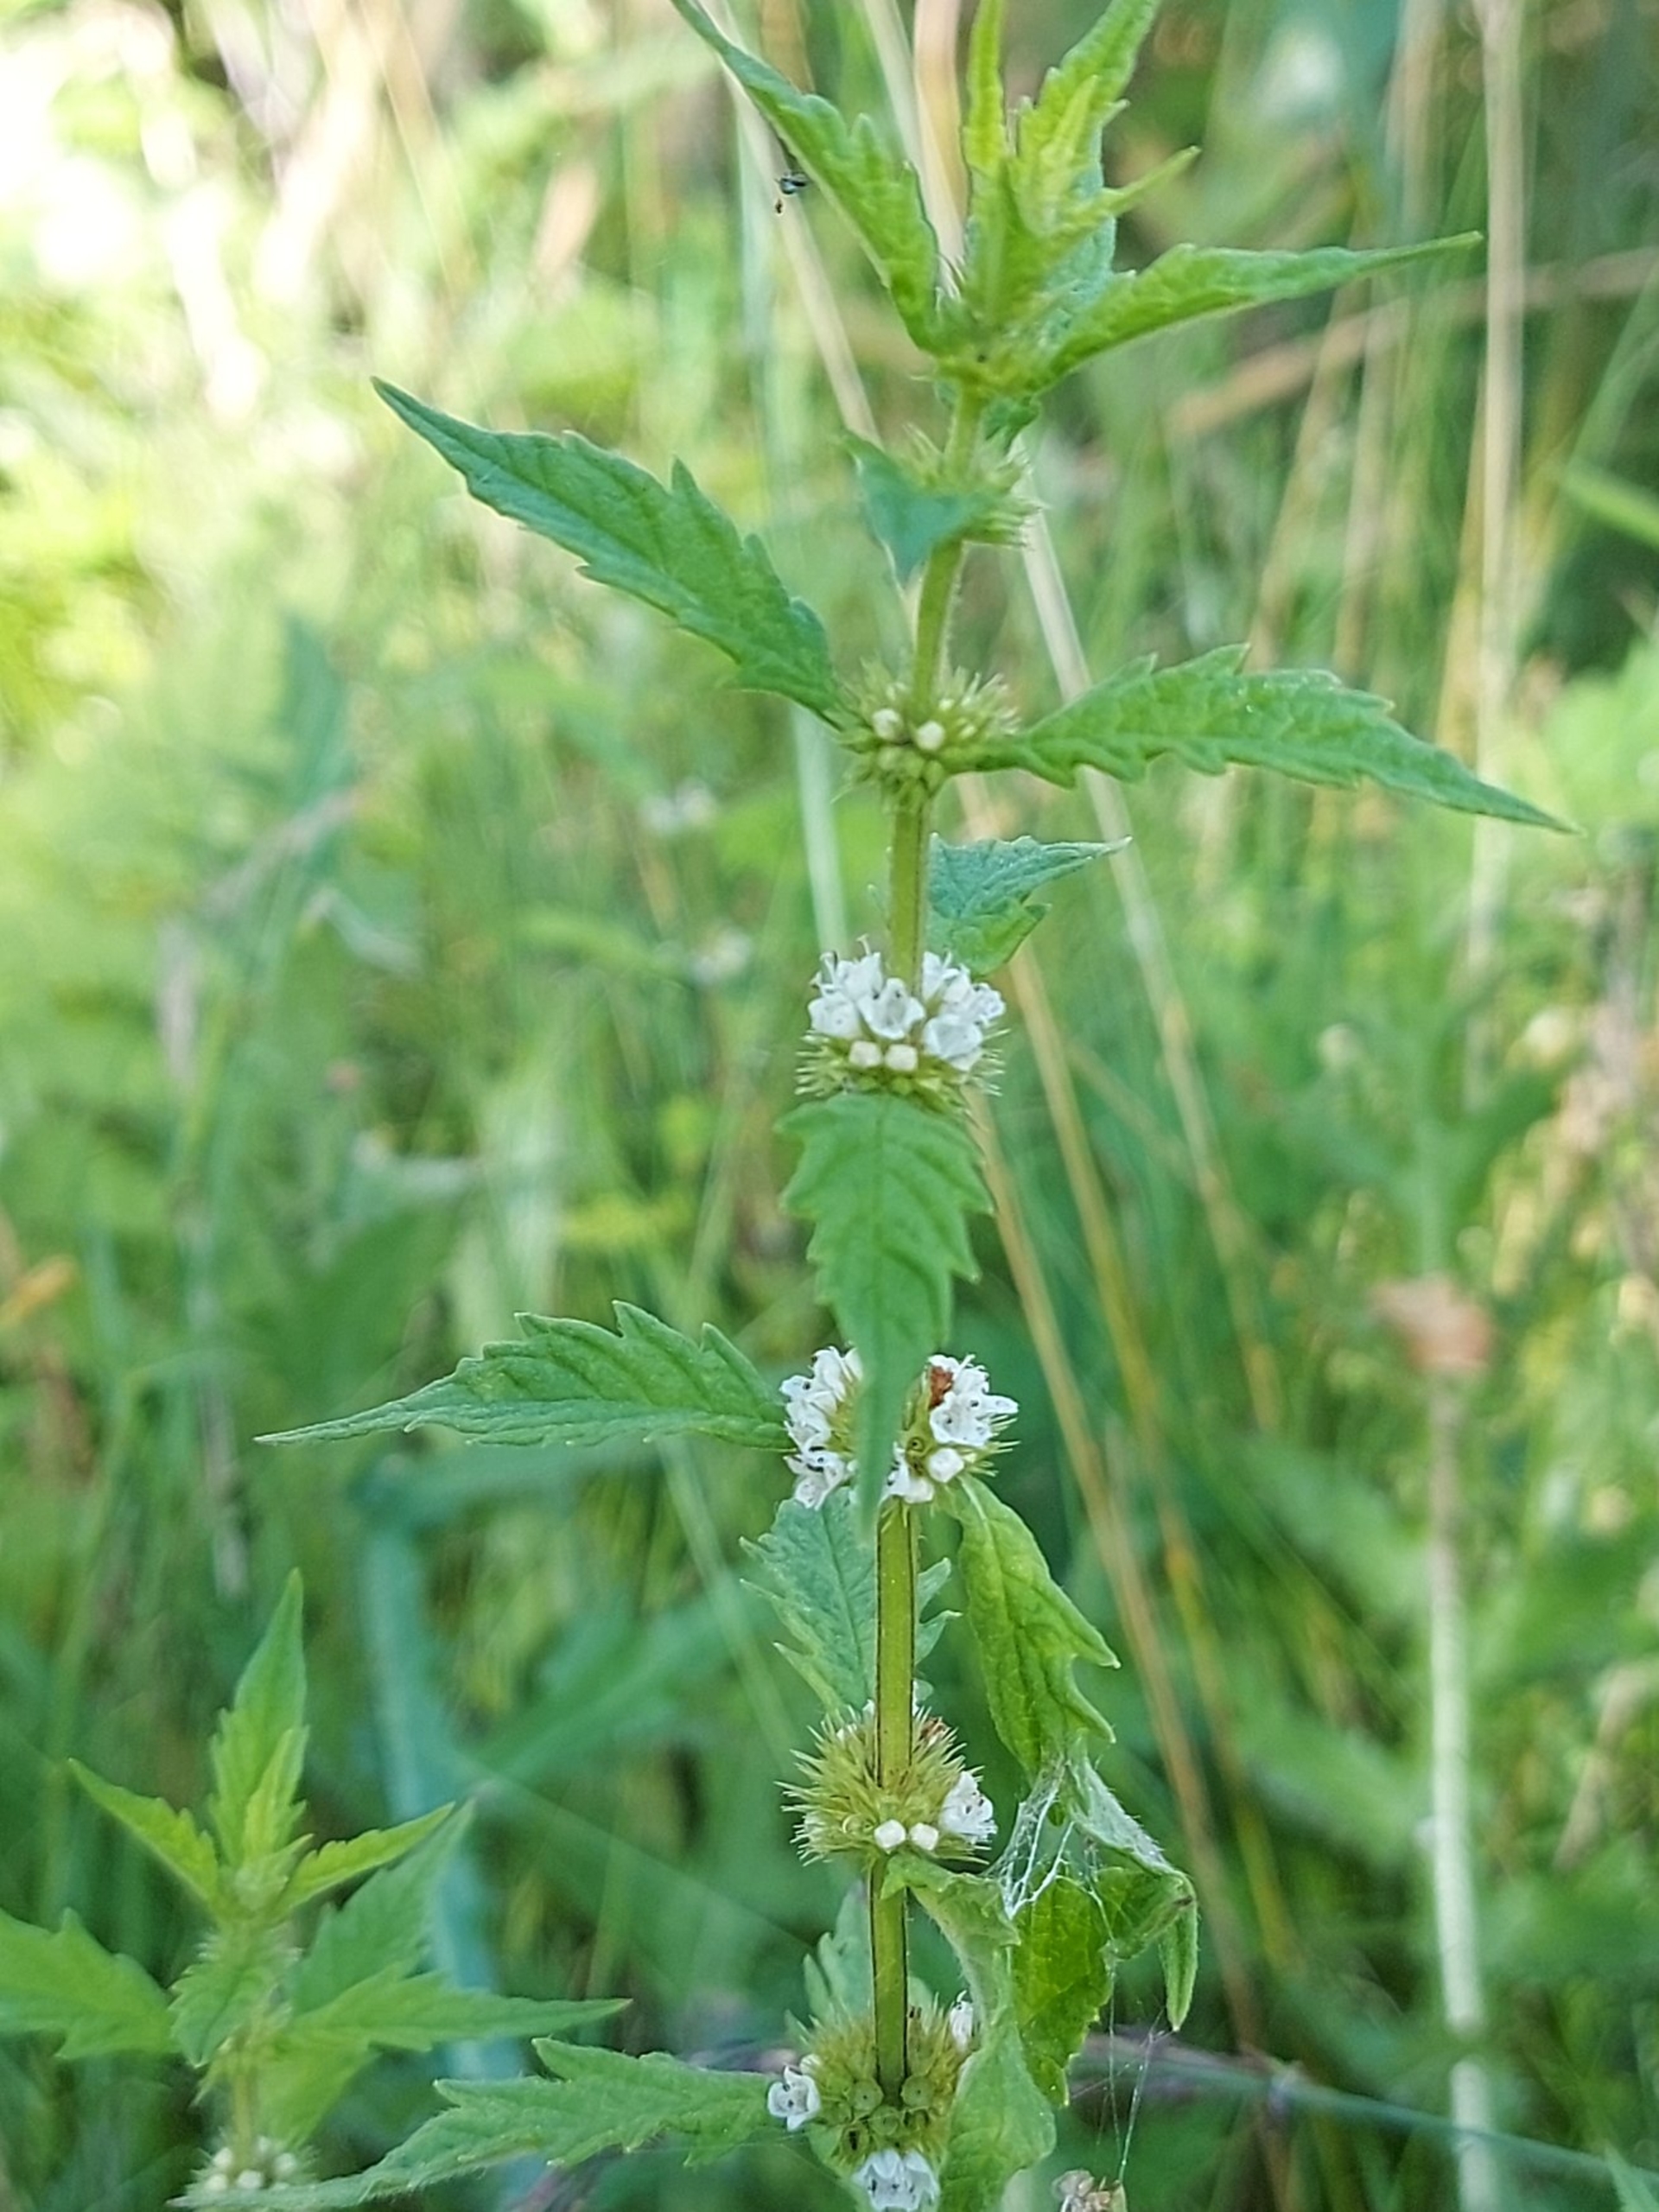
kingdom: Plantae
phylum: Tracheophyta
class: Magnoliopsida
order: Lamiales
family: Lamiaceae
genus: Lycopus
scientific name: Lycopus europaeus
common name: Sværtevæld
